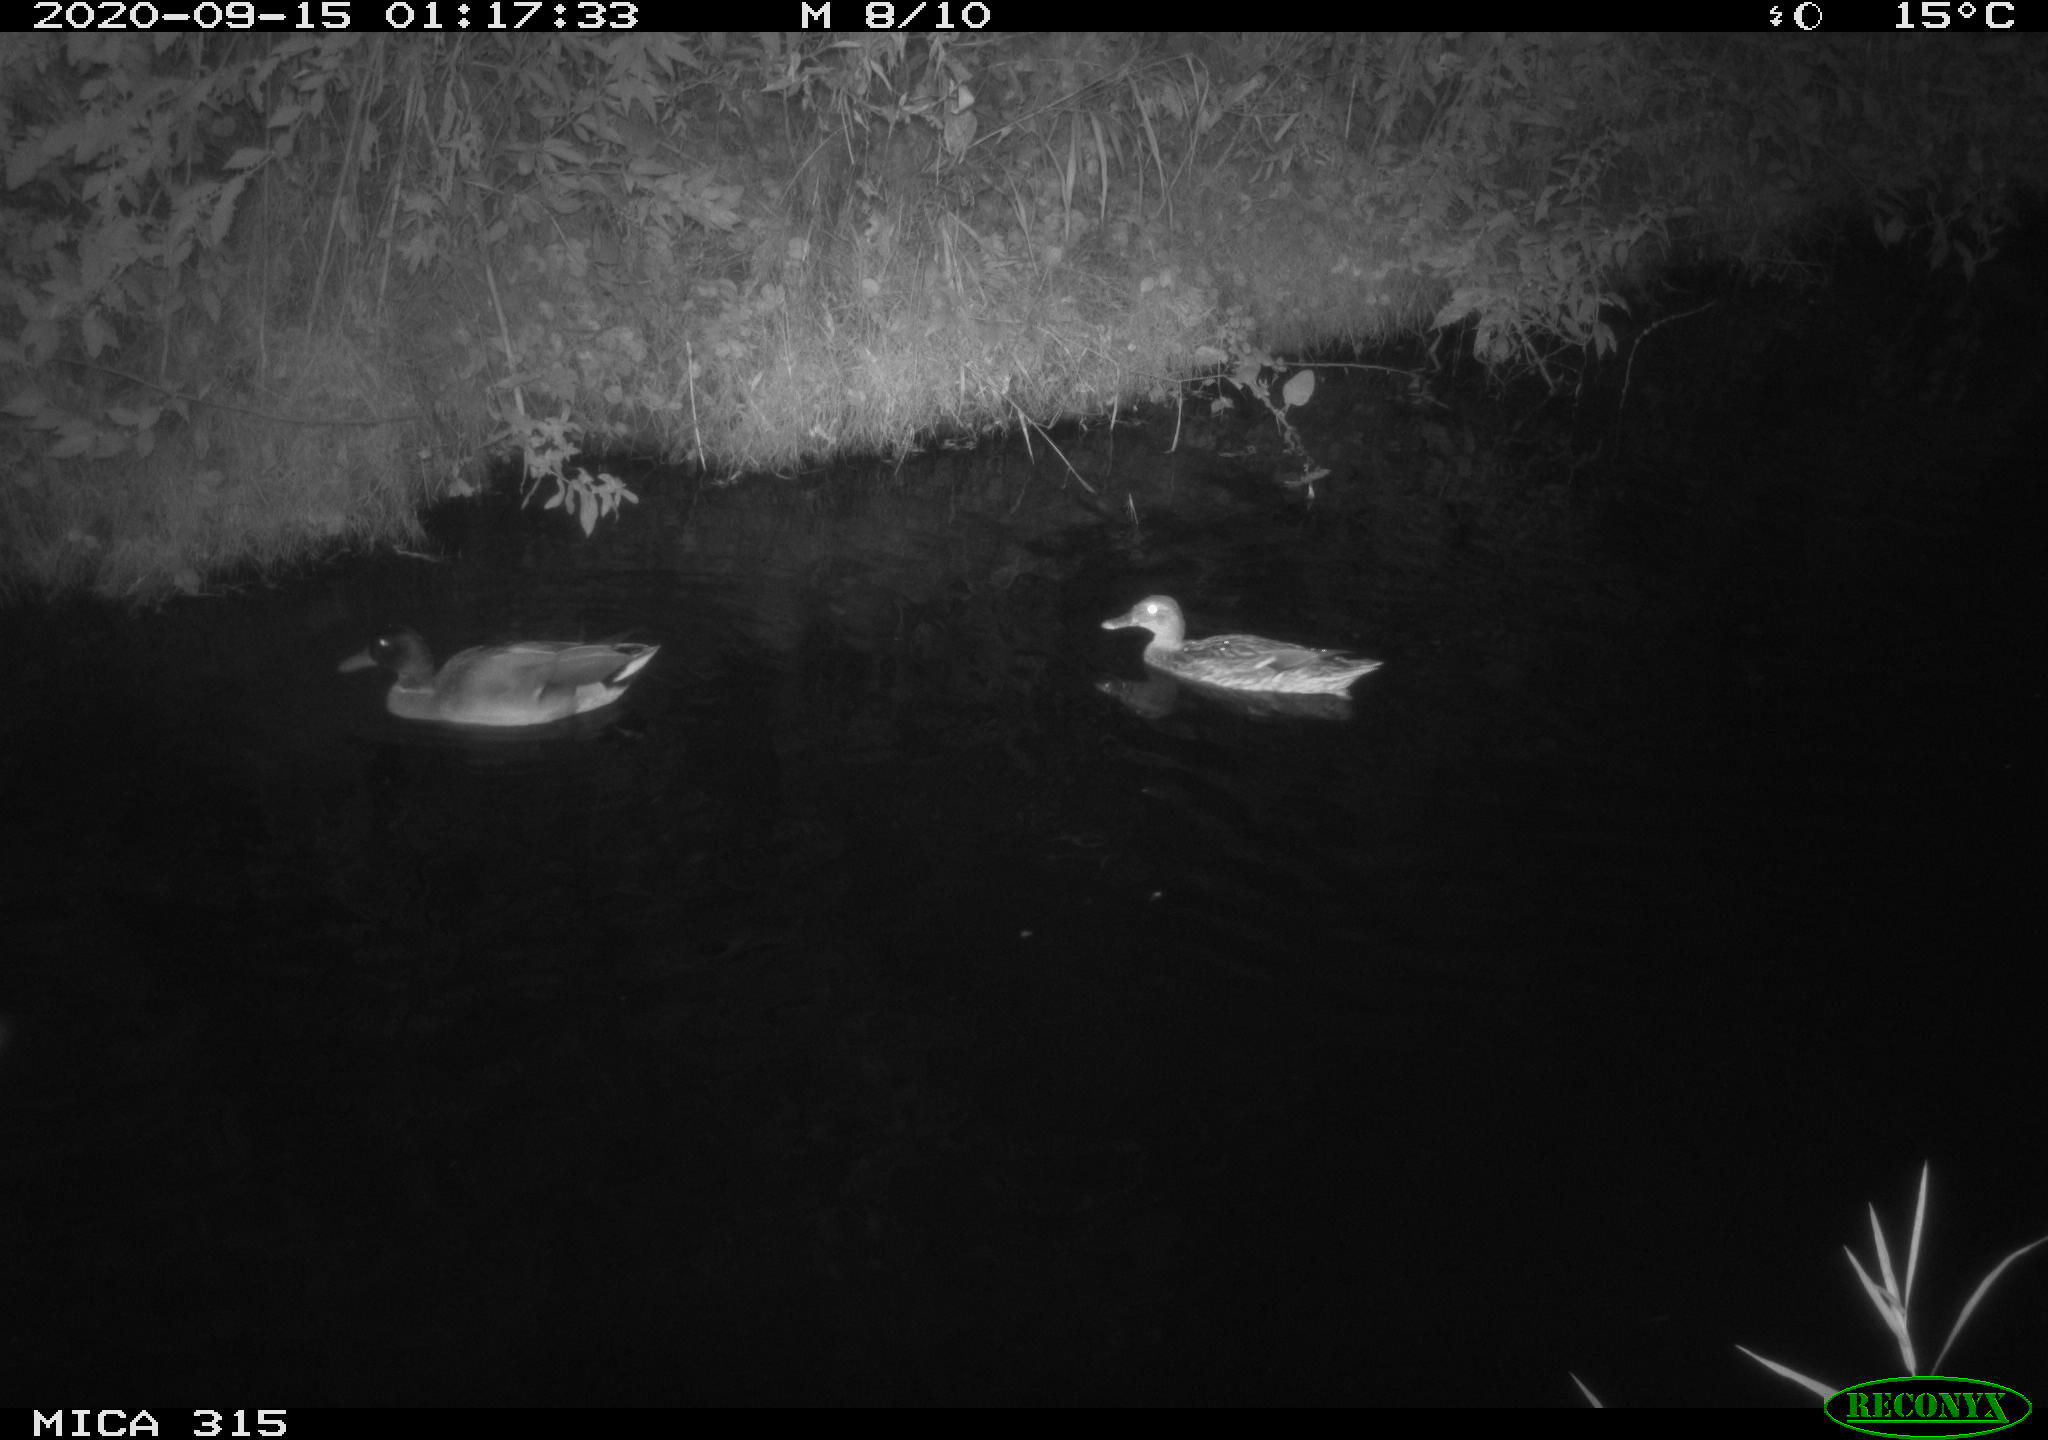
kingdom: Animalia
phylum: Chordata
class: Aves
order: Anseriformes
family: Anatidae
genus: Anas
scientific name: Anas platyrhynchos
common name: Mallard
